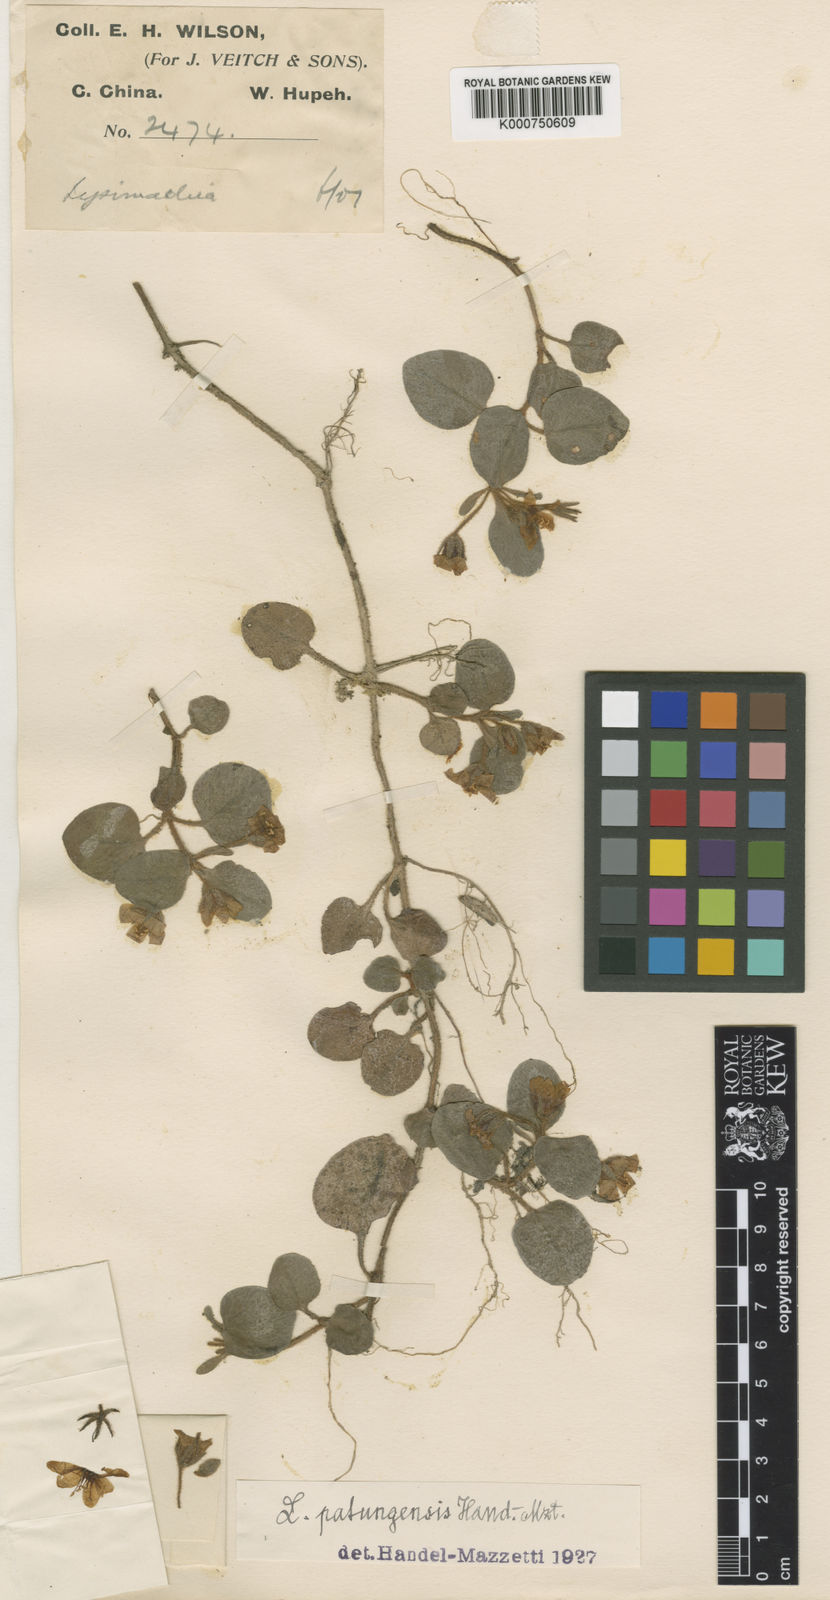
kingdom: Plantae
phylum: Tracheophyta
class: Magnoliopsida
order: Ericales
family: Primulaceae
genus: Lysimachia
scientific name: Lysimachia patungensis
